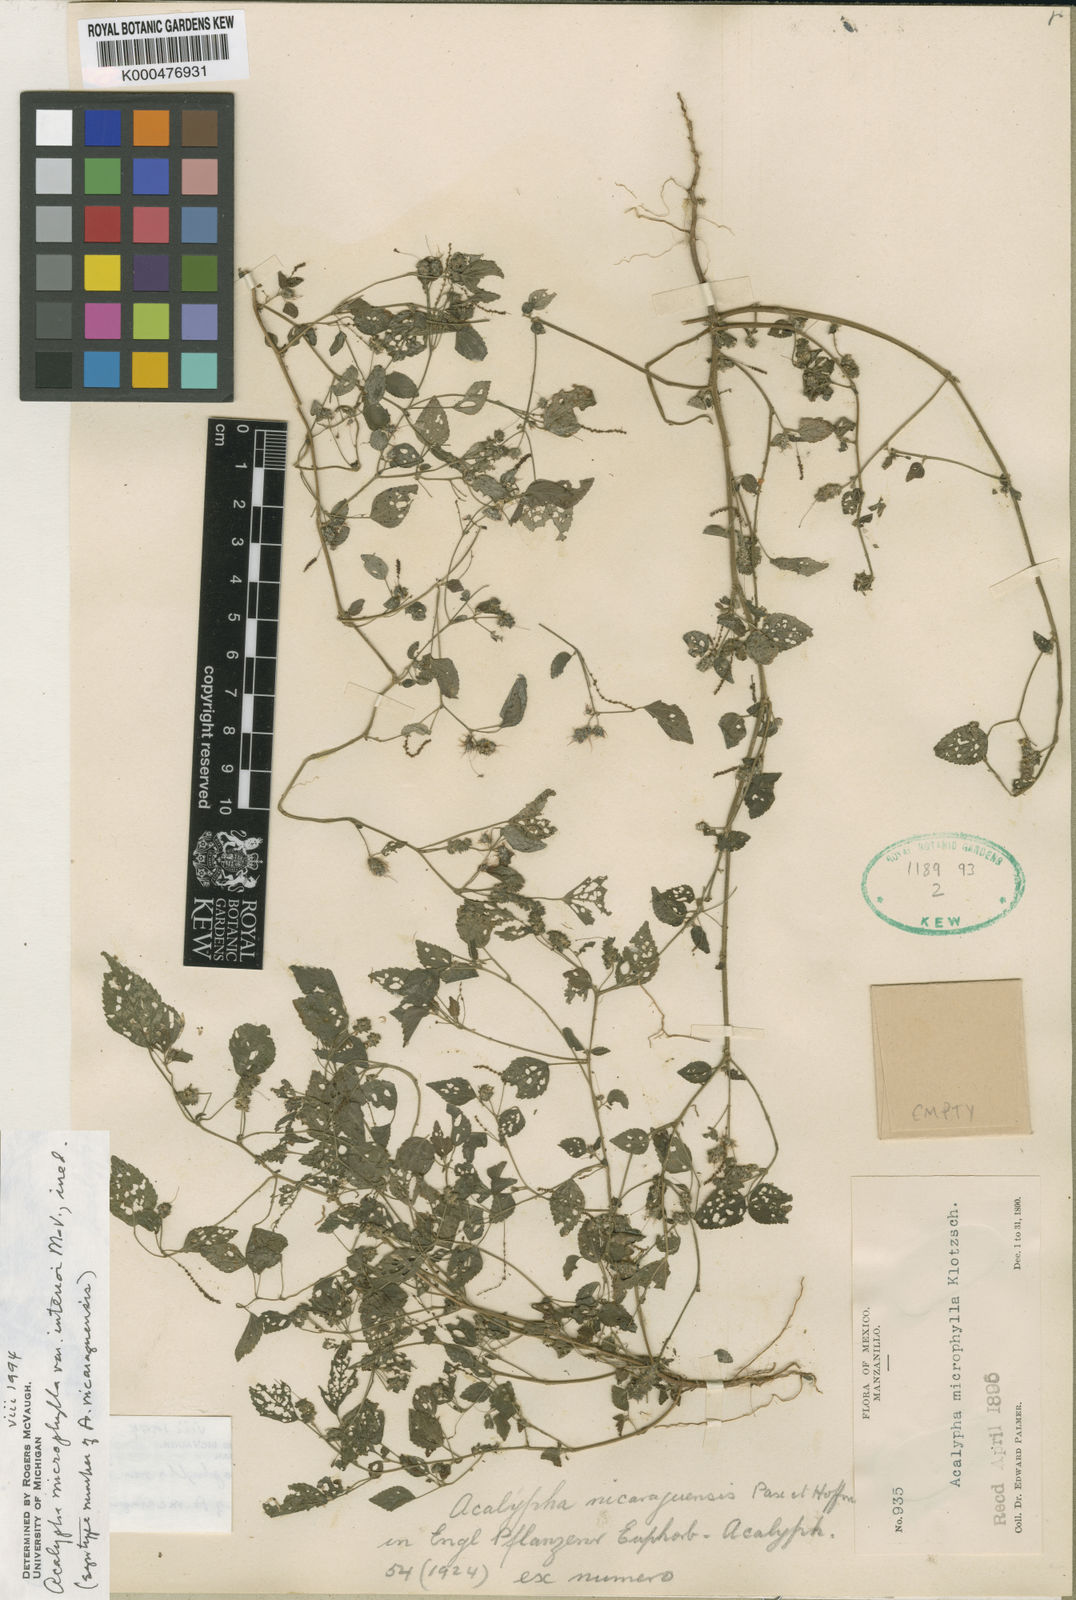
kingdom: Plantae
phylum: Tracheophyta
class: Magnoliopsida
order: Malpighiales
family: Euphorbiaceae
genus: Acalypha
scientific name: Acalypha microphylla
